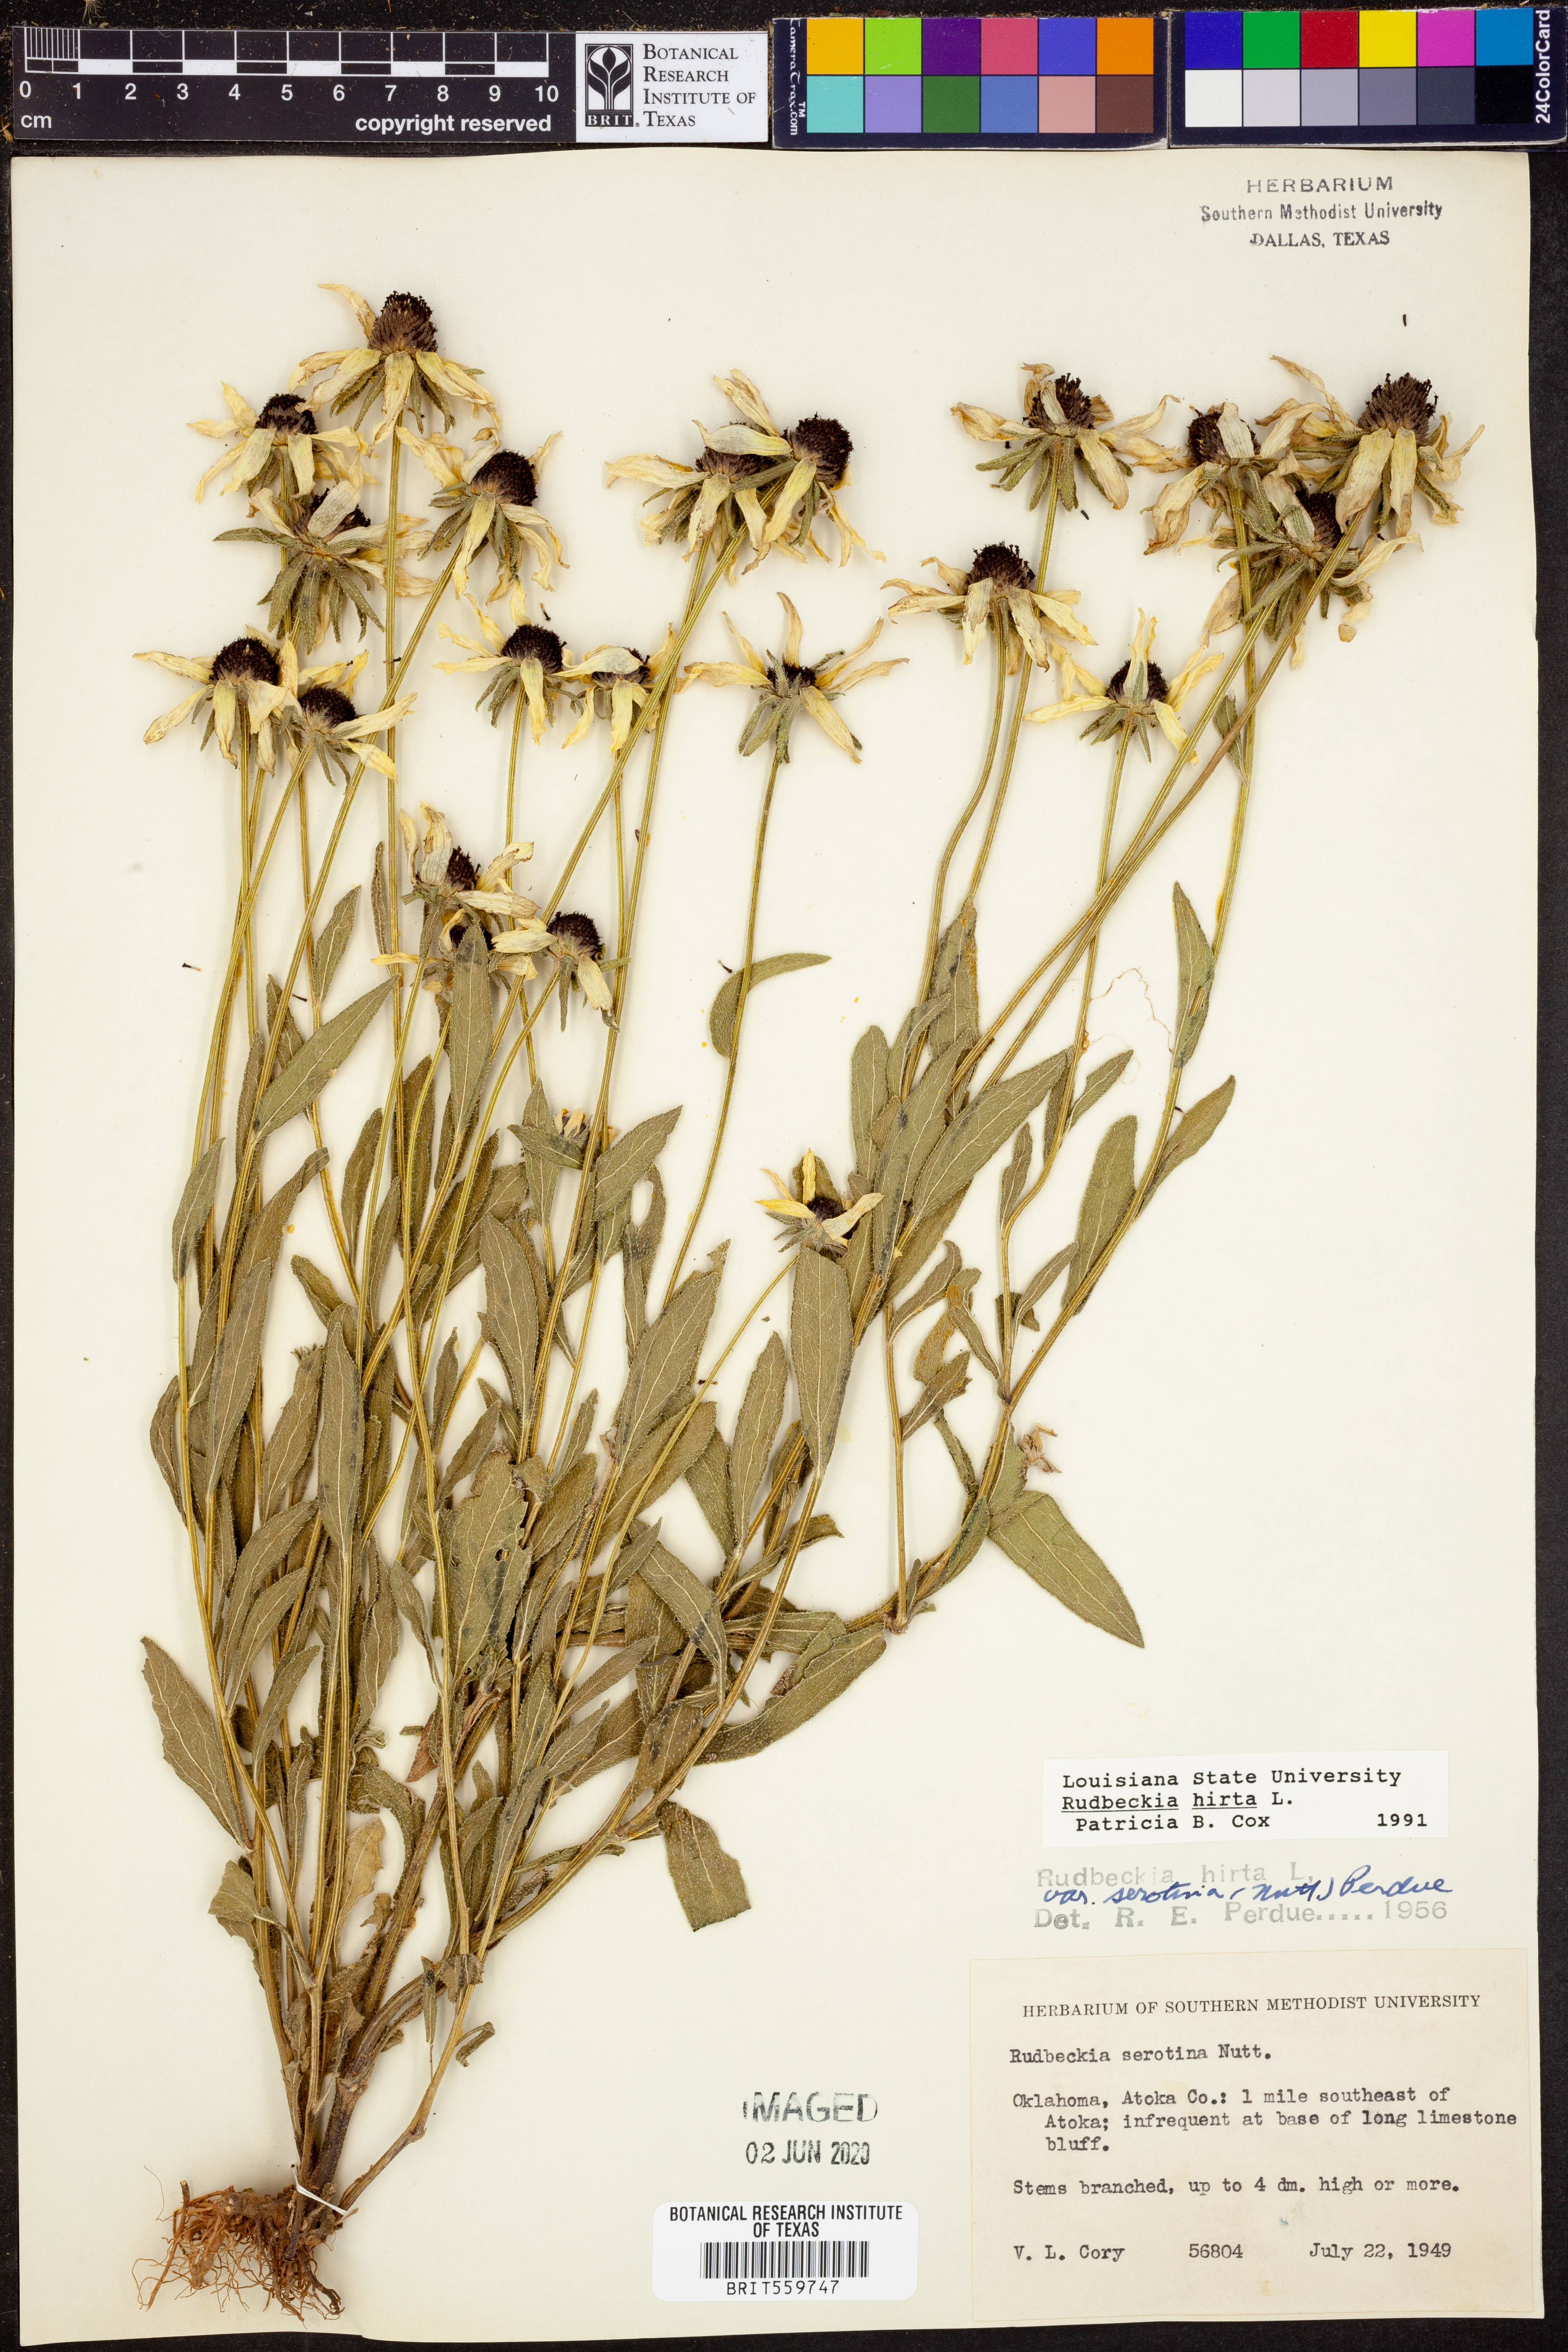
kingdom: Plantae
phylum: Tracheophyta
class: Magnoliopsida
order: Asterales
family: Asteraceae
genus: Rudbeckia
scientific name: Rudbeckia hirta
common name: Black-eyed-susan
